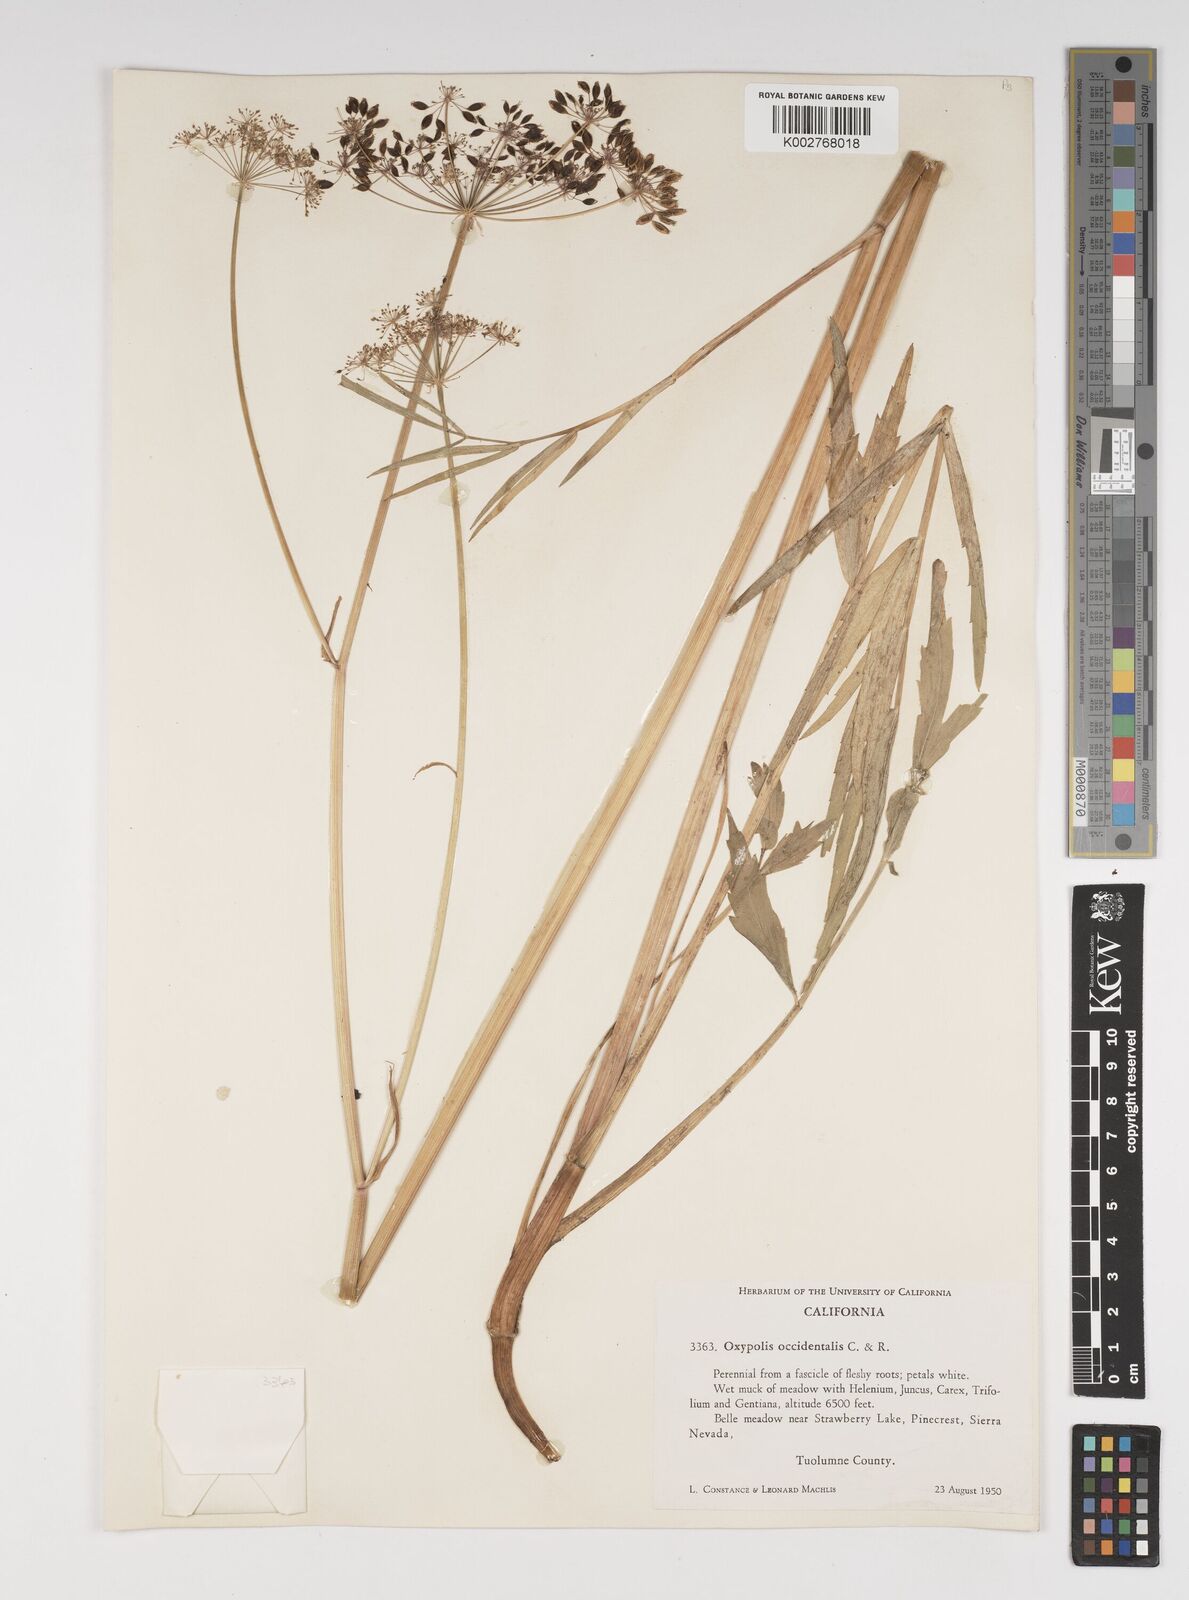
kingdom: Plantae
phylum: Tracheophyta
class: Magnoliopsida
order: Apiales
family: Apiaceae
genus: Oxypolis
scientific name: Oxypolis occidentalis
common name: Western cowbane
